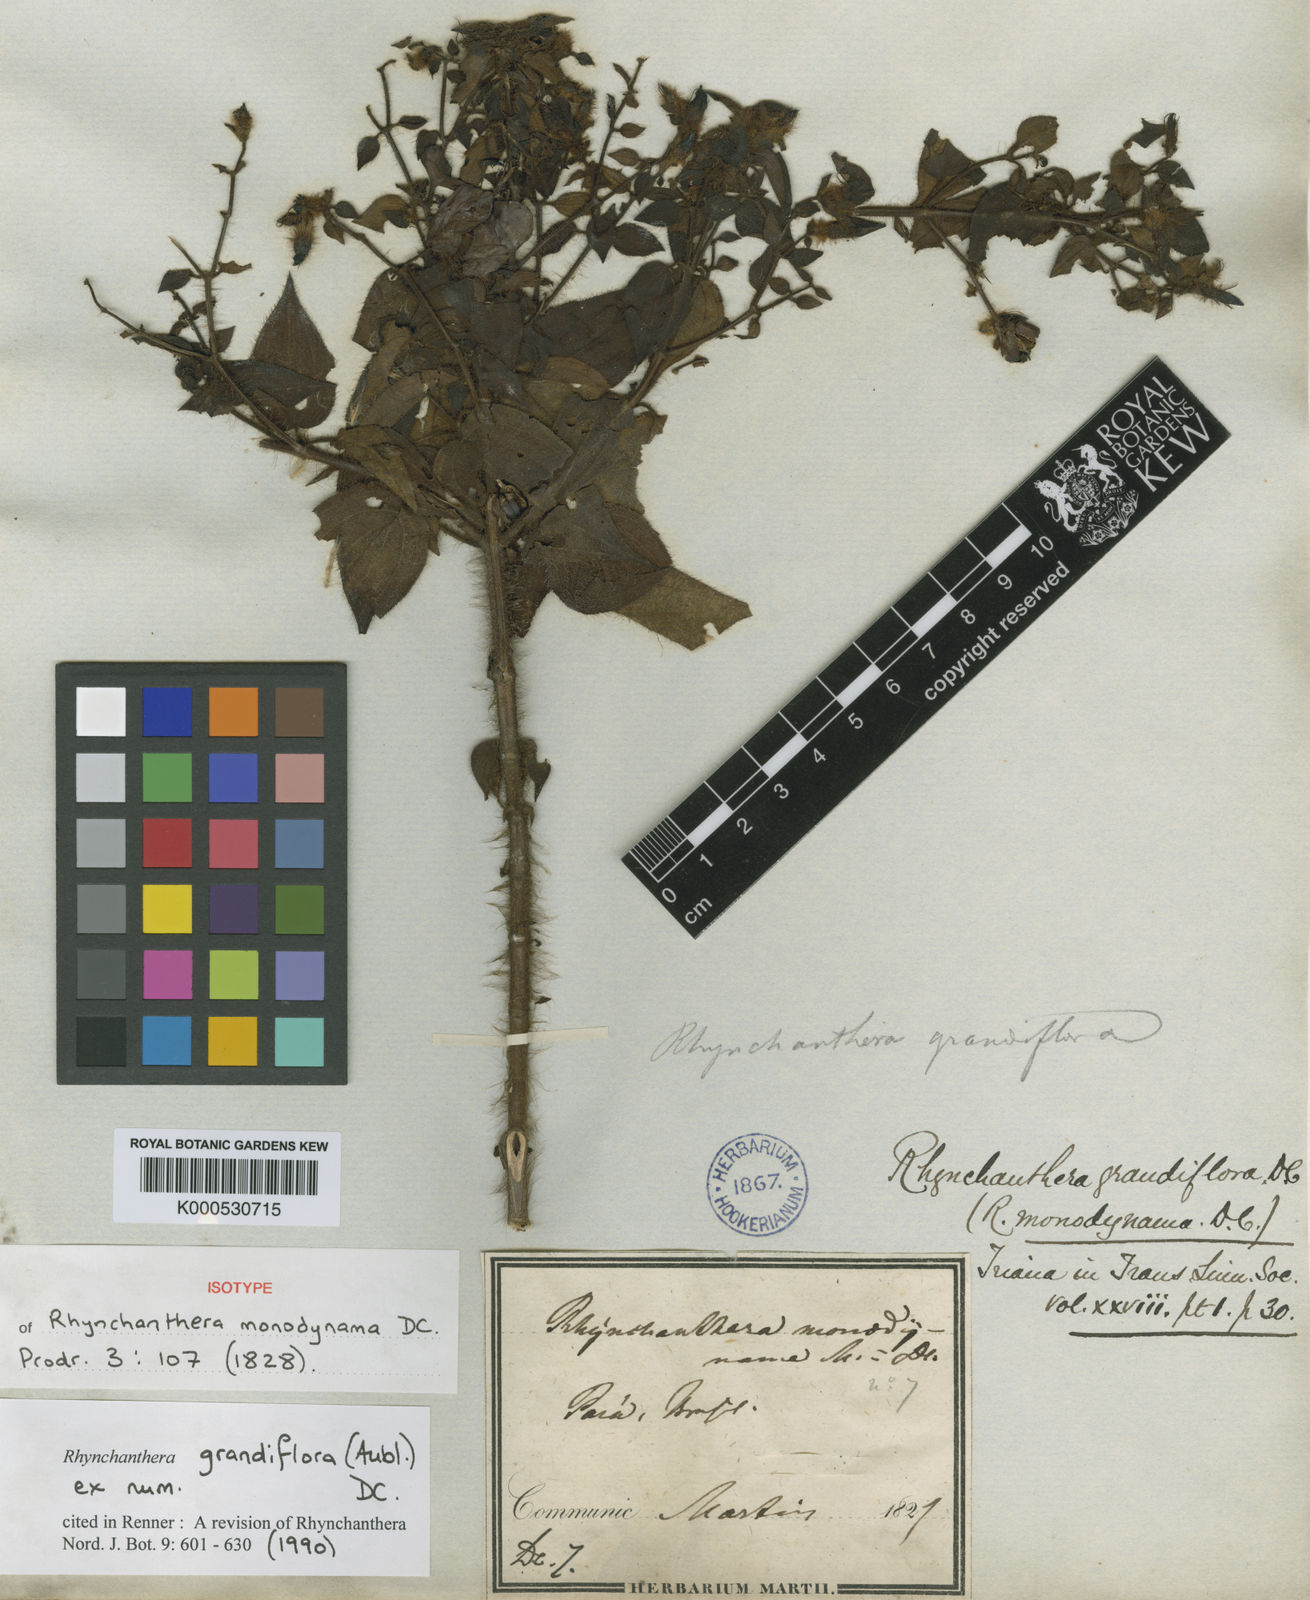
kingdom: Plantae
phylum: Tracheophyta
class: Magnoliopsida
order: Myrtales
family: Melastomataceae
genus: Rhynchanthera
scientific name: Rhynchanthera grandiflora
